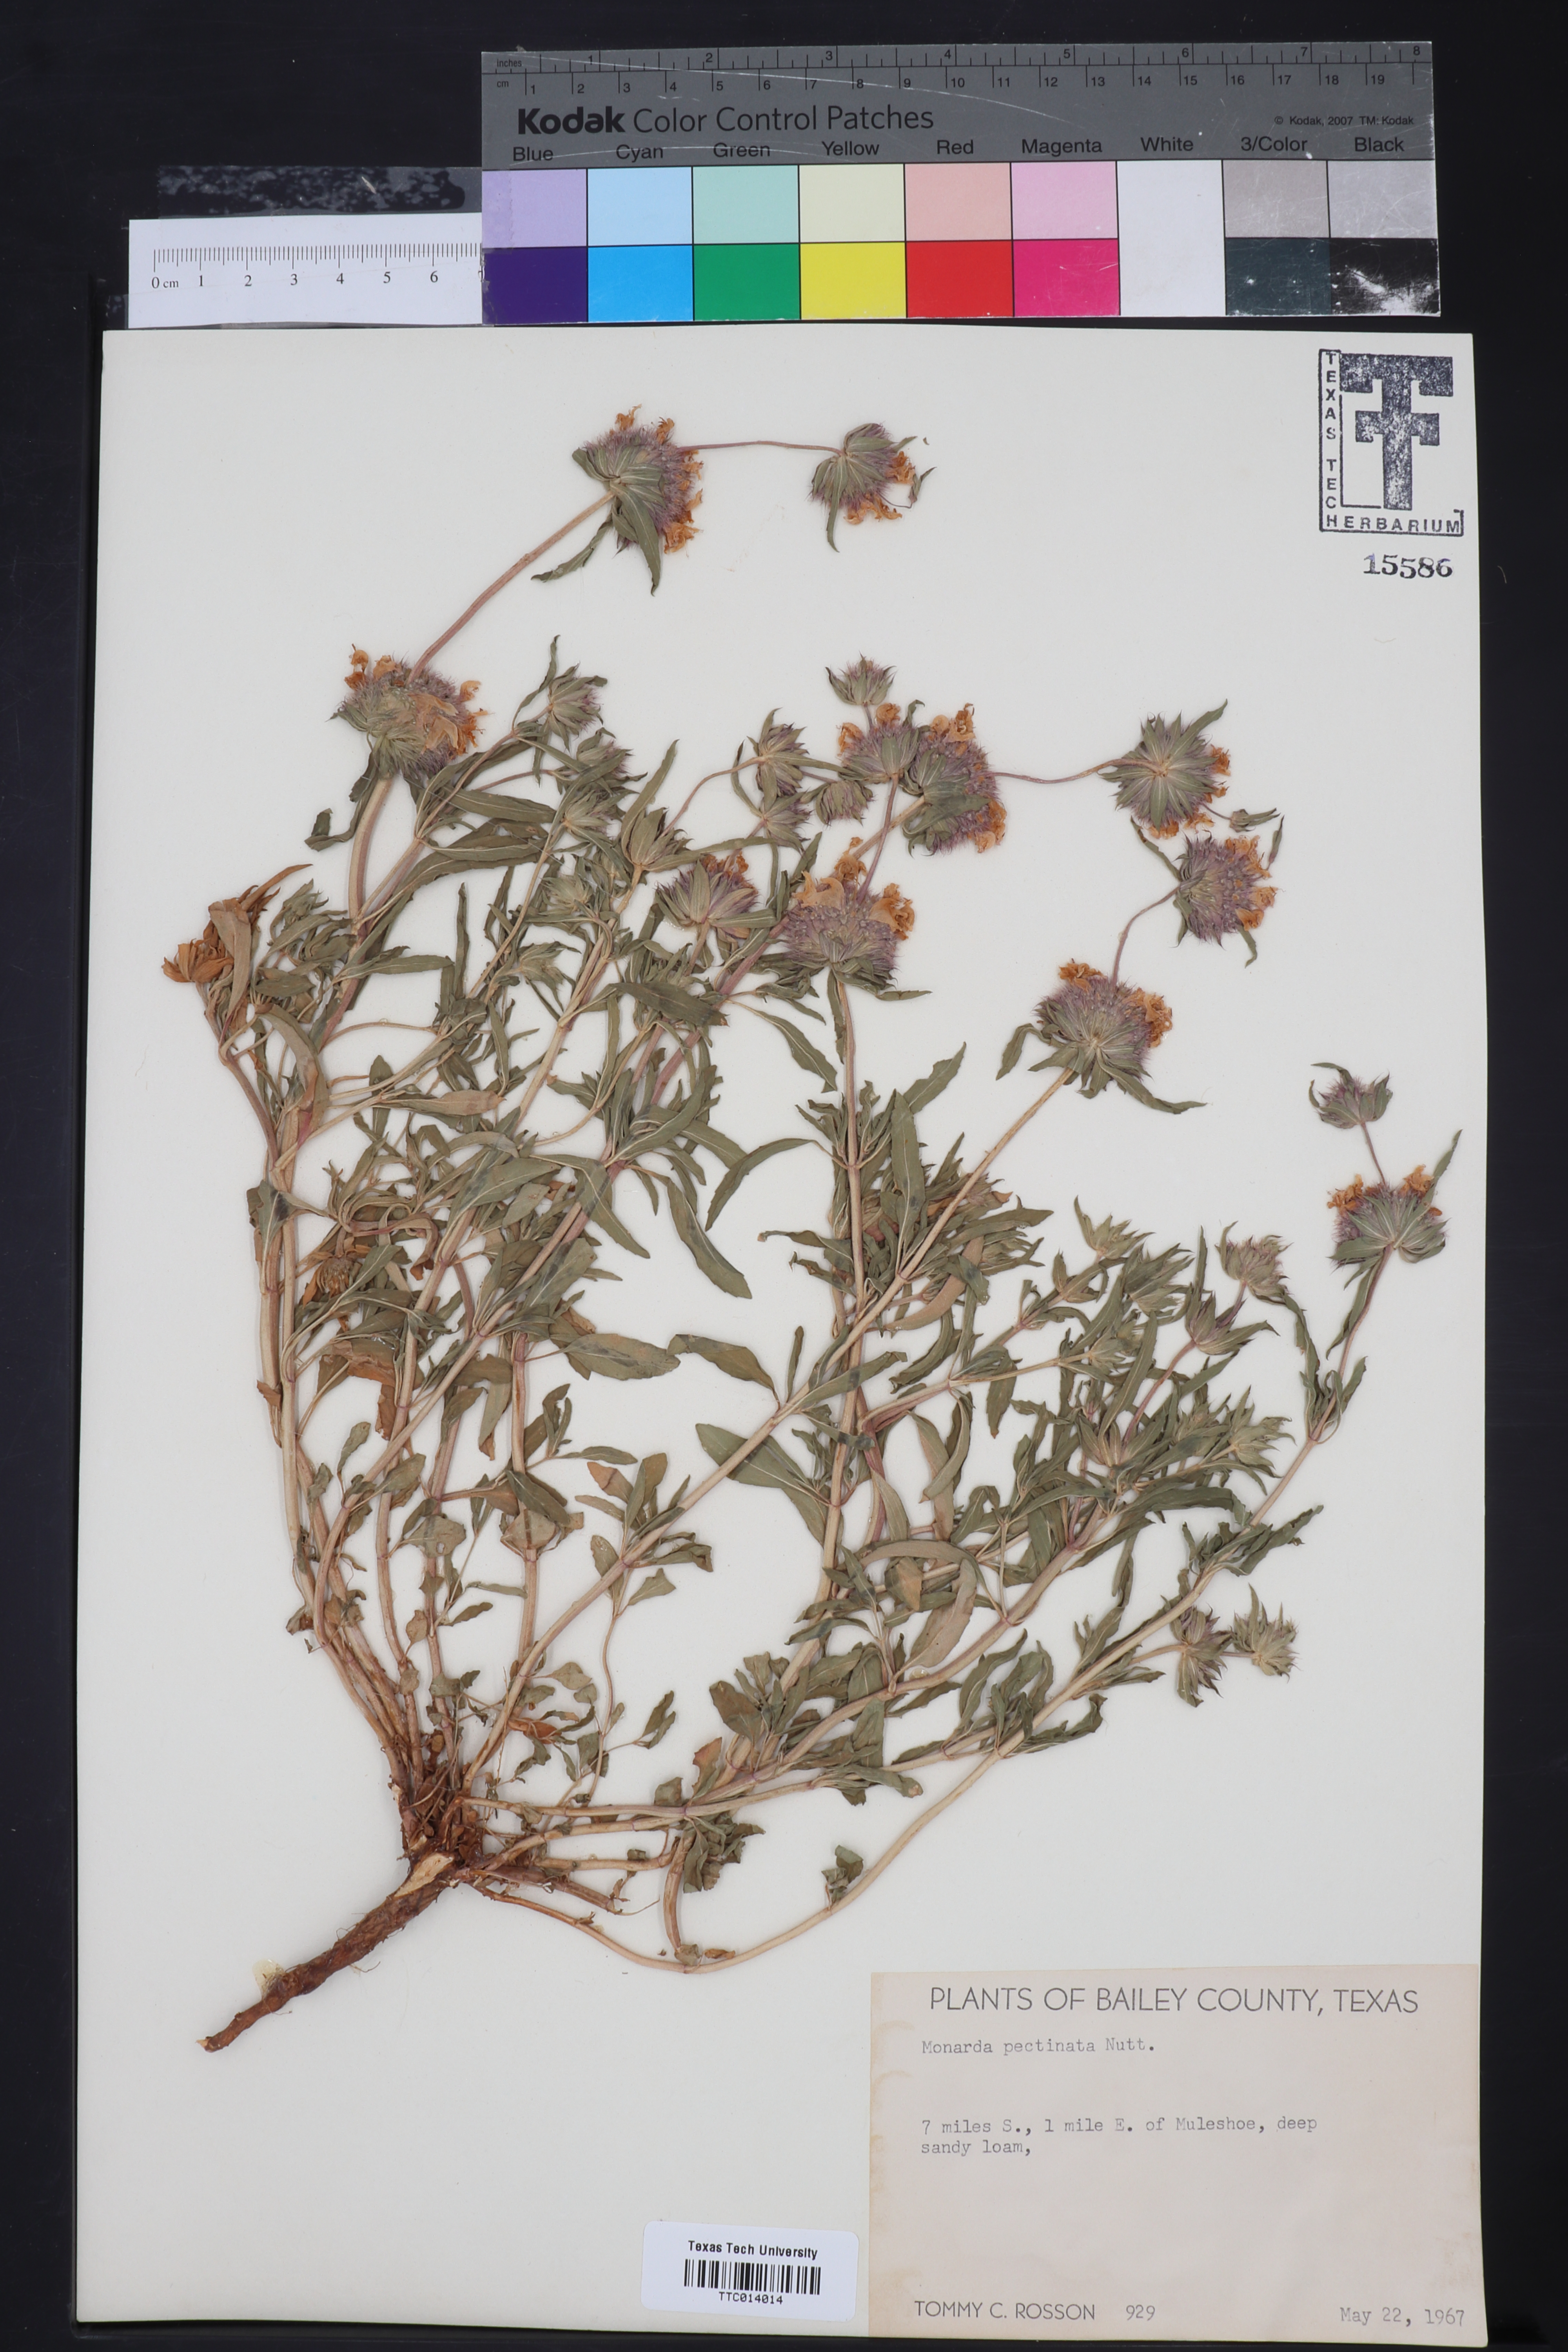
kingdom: Plantae
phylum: Tracheophyta
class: Magnoliopsida
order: Lamiales
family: Lamiaceae
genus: Monarda
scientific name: Monarda pectinata
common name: Plains beebalm
